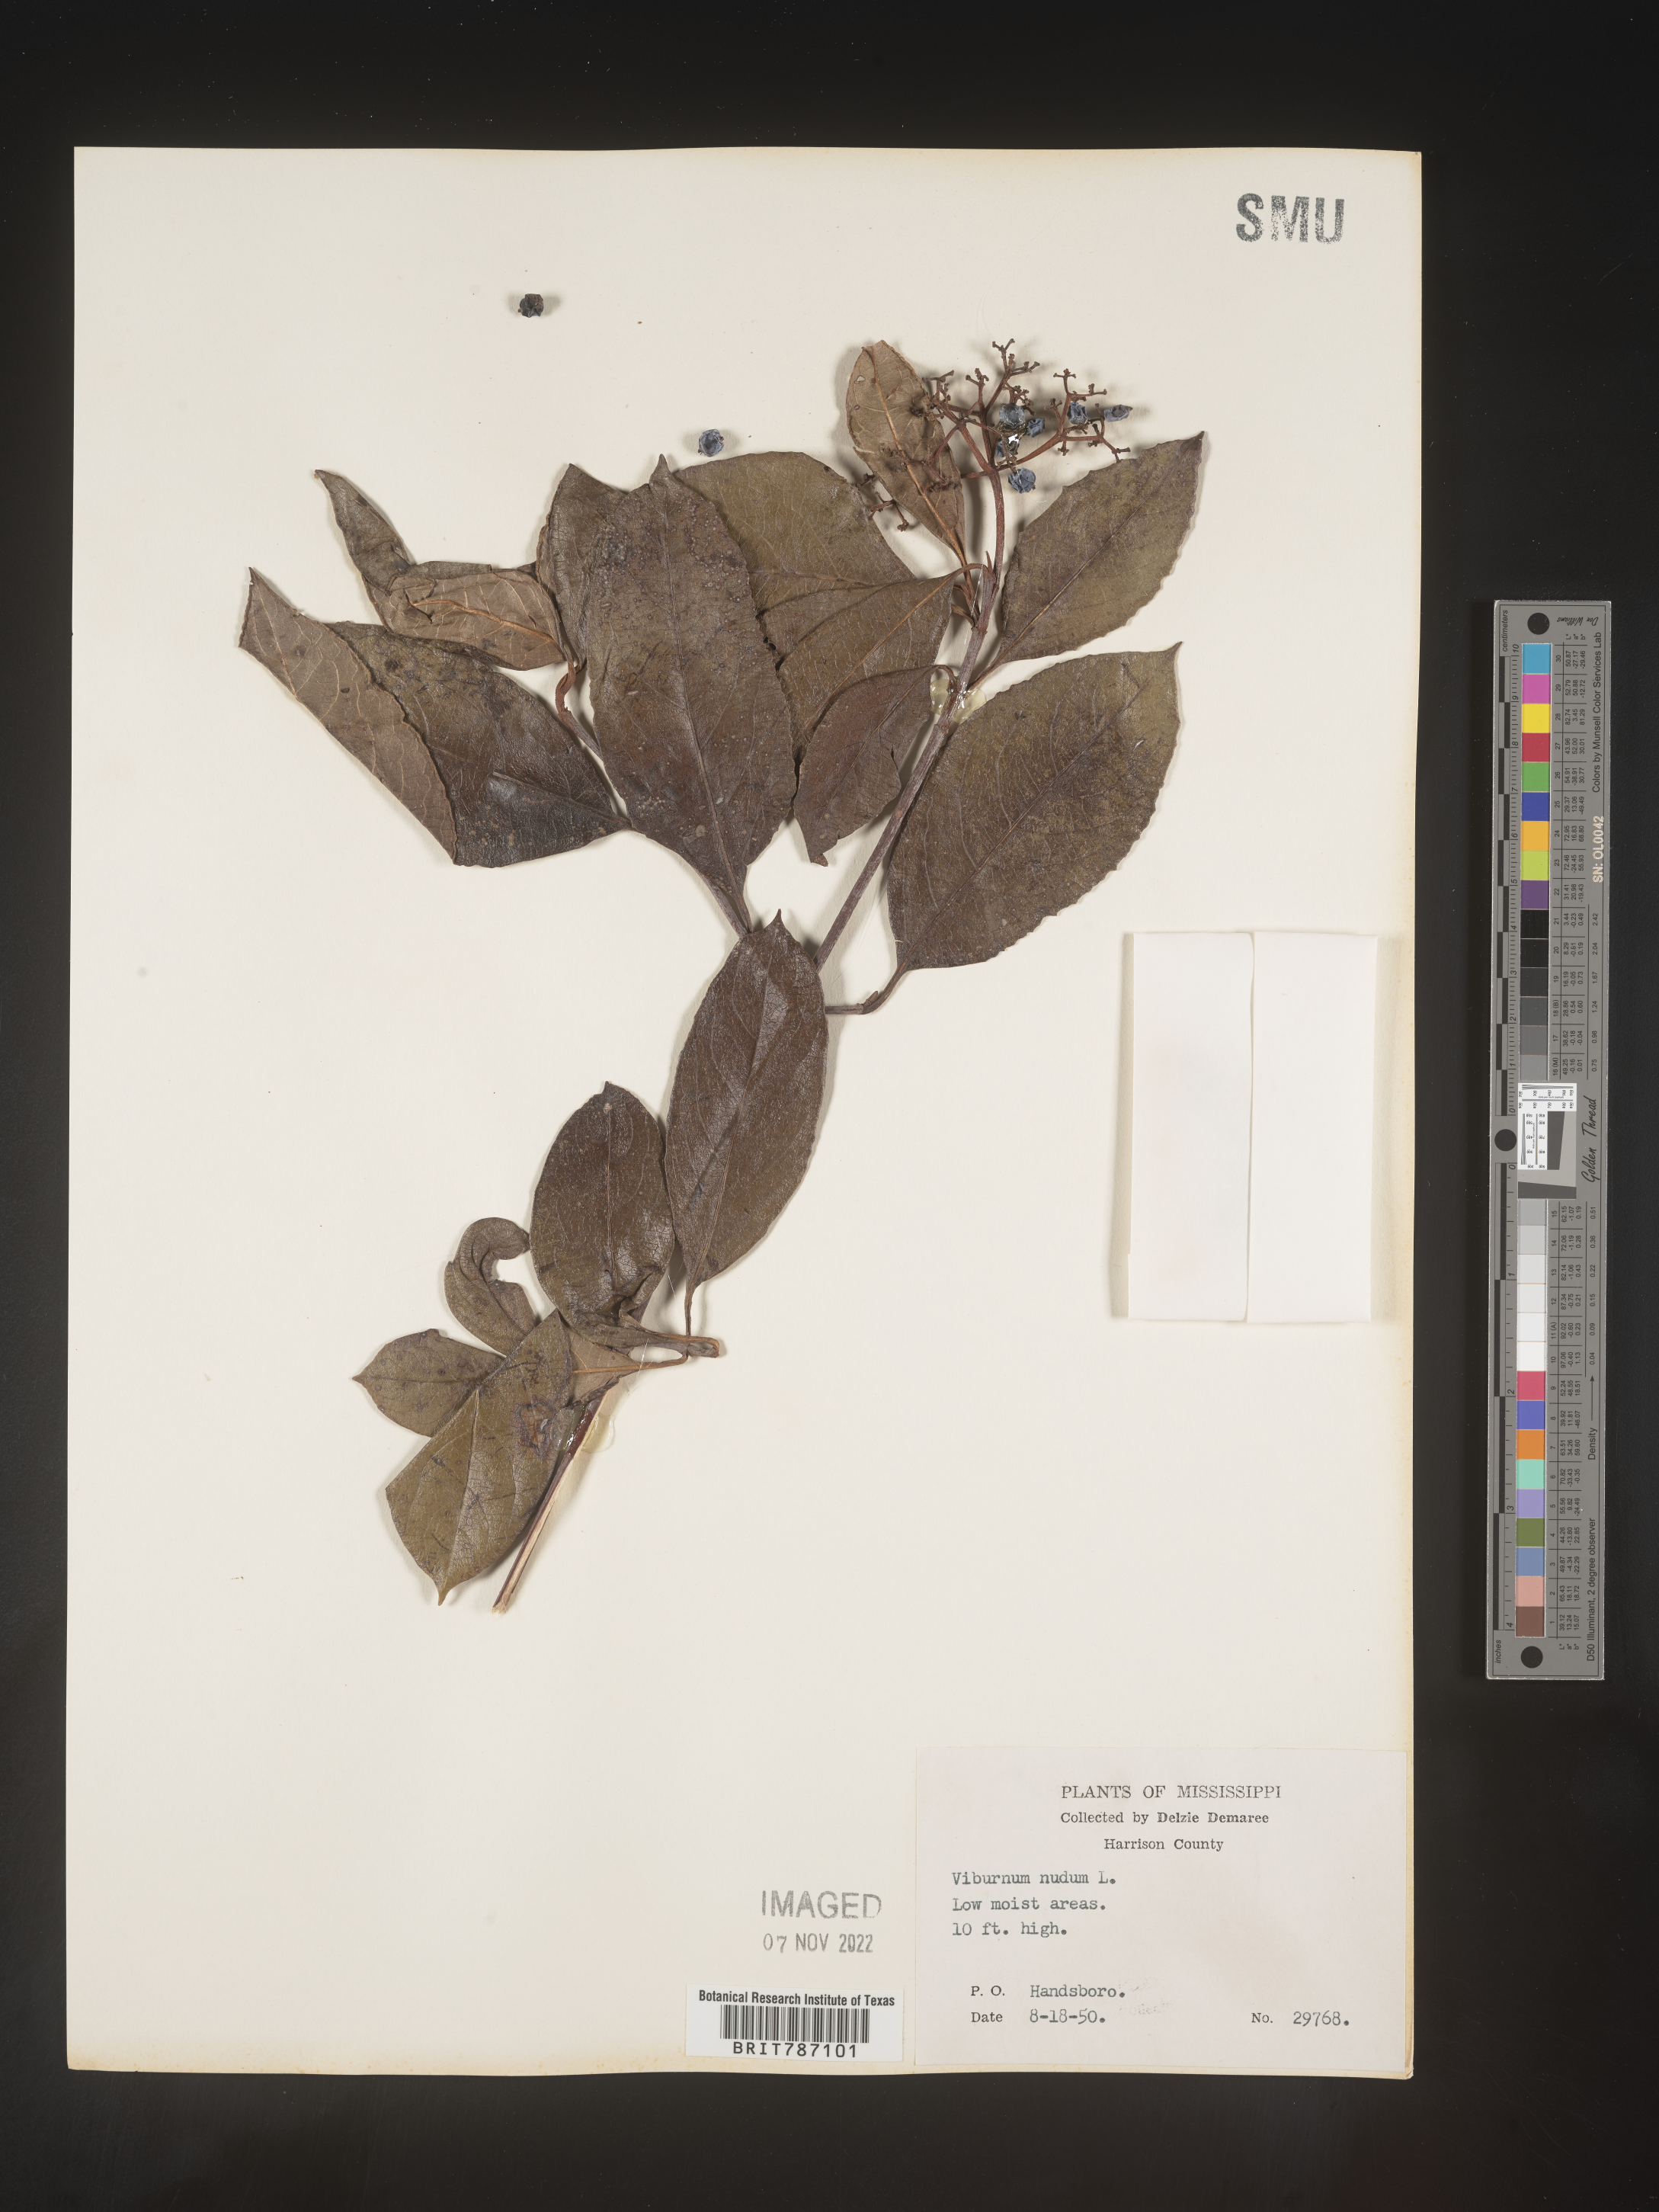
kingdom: Plantae
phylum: Tracheophyta
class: Magnoliopsida
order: Dipsacales
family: Viburnaceae
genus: Viburnum
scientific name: Viburnum nudum
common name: Possum haw
